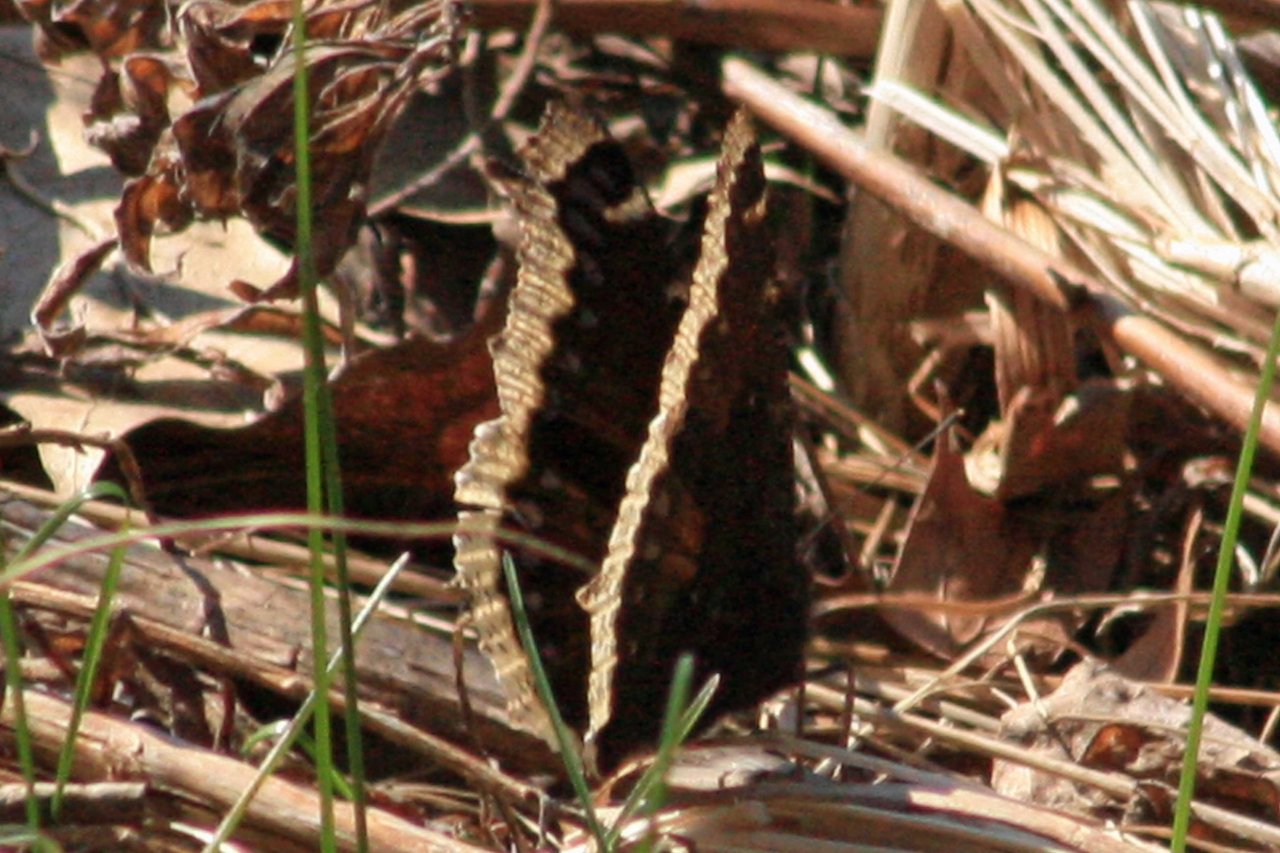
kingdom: Animalia
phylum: Arthropoda
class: Insecta
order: Lepidoptera
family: Nymphalidae
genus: Nymphalis
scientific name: Nymphalis antiopa
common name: Mourning Cloak
